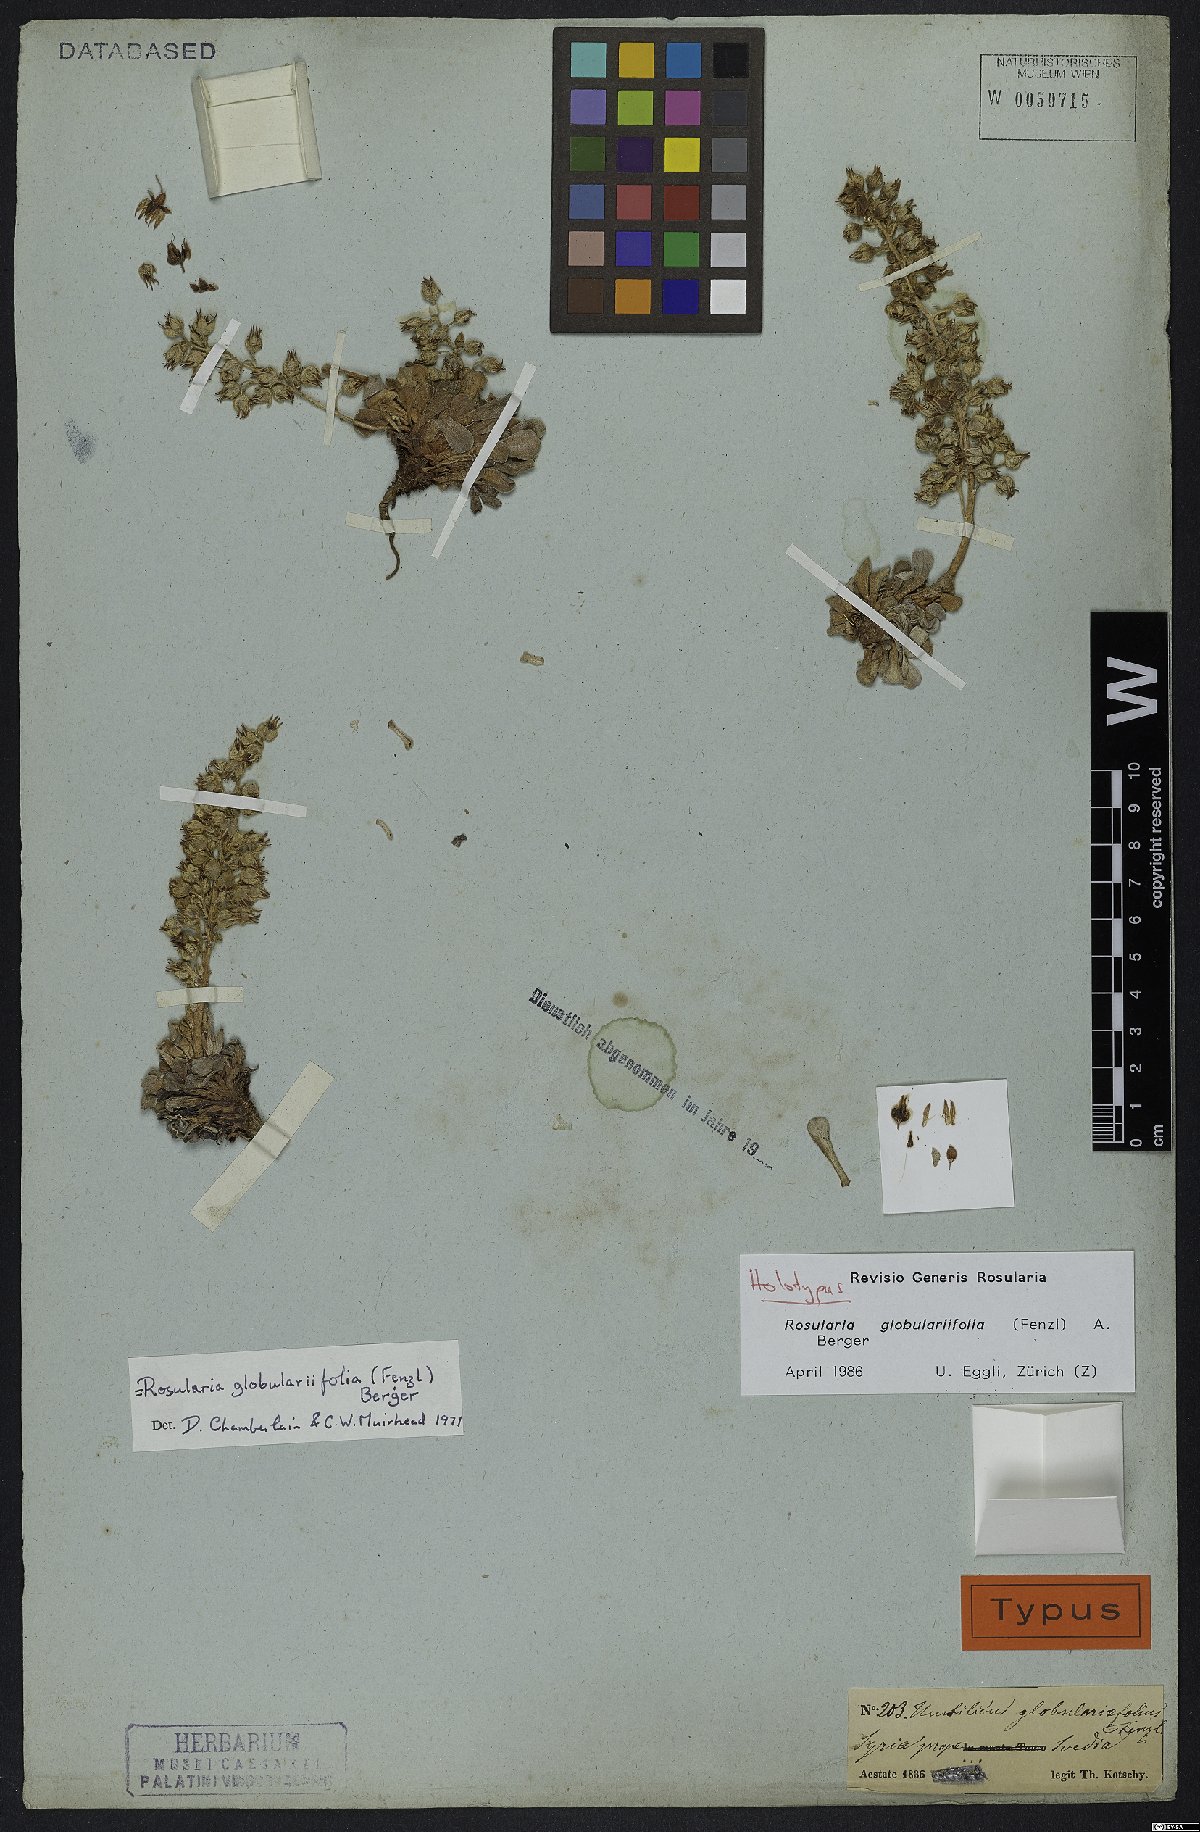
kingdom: Plantae
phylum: Tracheophyta
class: Magnoliopsida
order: Saxifragales
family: Crassulaceae
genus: Rosularia
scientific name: Rosularia globulariifolia
